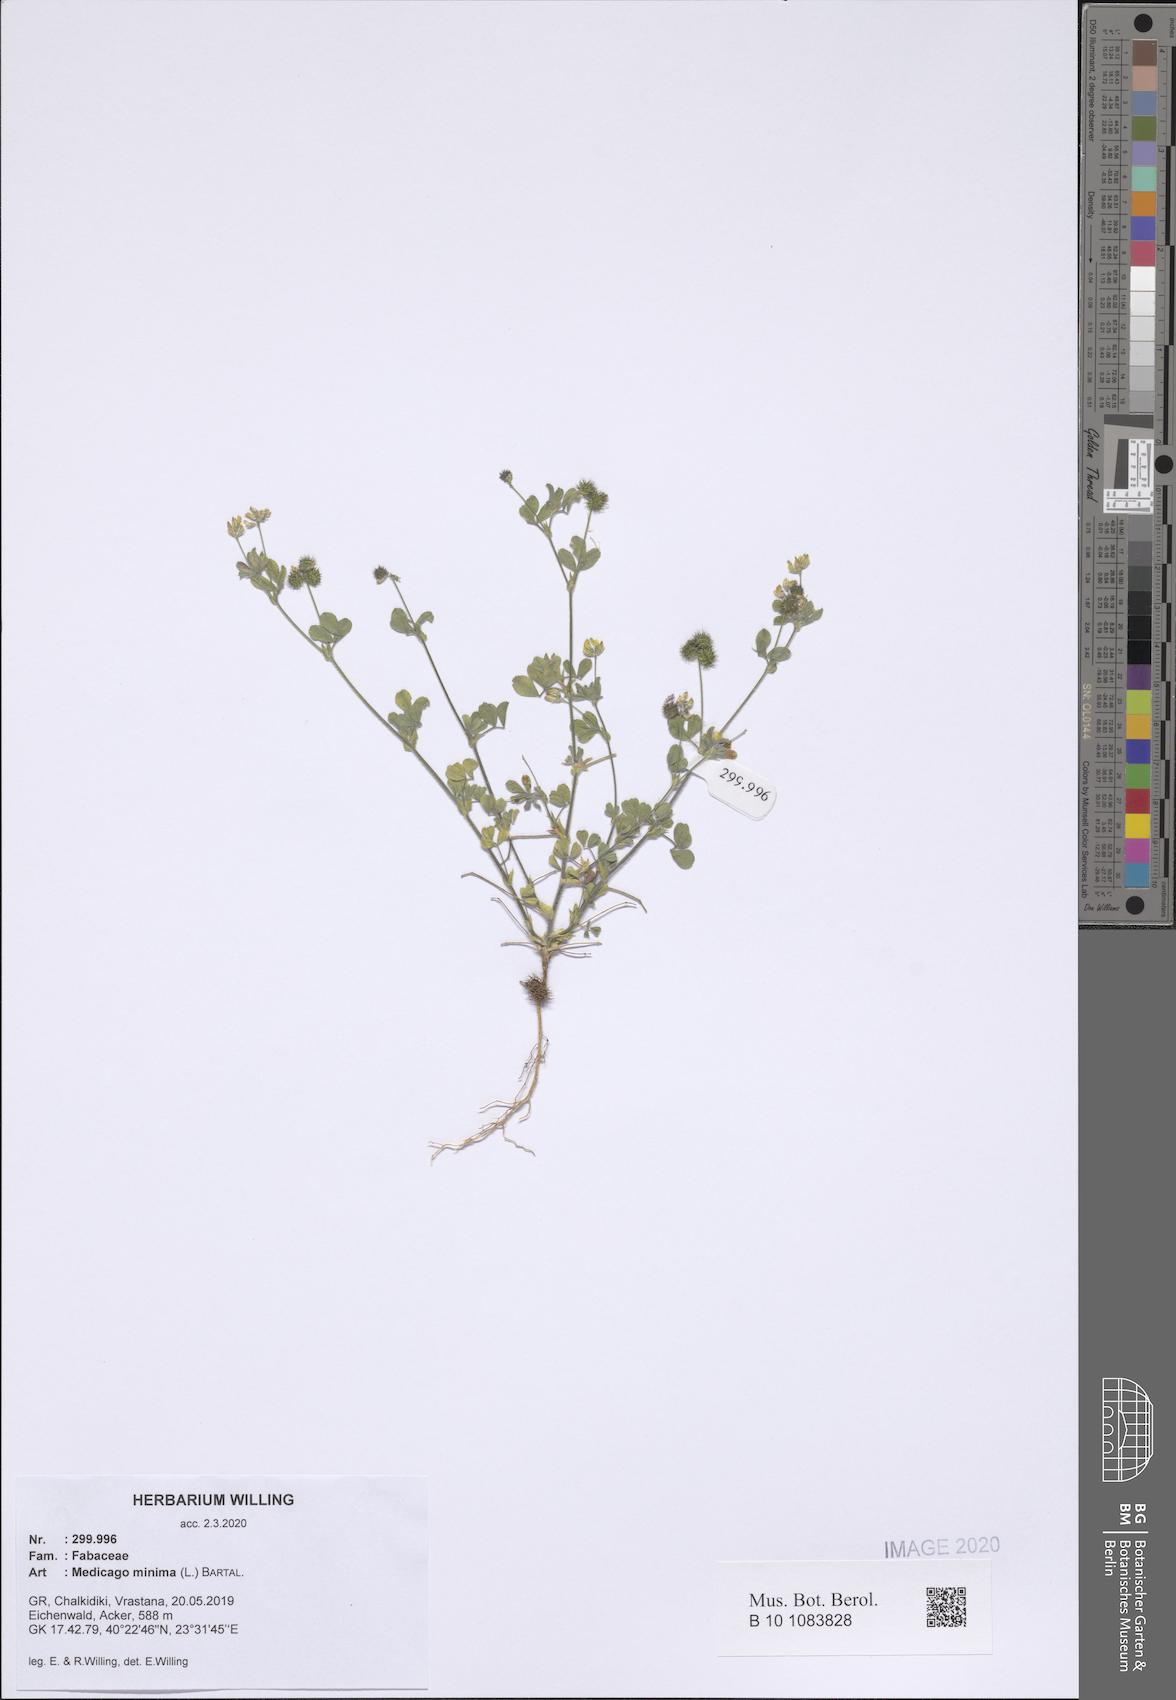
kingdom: Plantae
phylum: Tracheophyta
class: Magnoliopsida
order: Fabales
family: Fabaceae
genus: Medicago
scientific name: Medicago minima
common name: Little bur-clover
